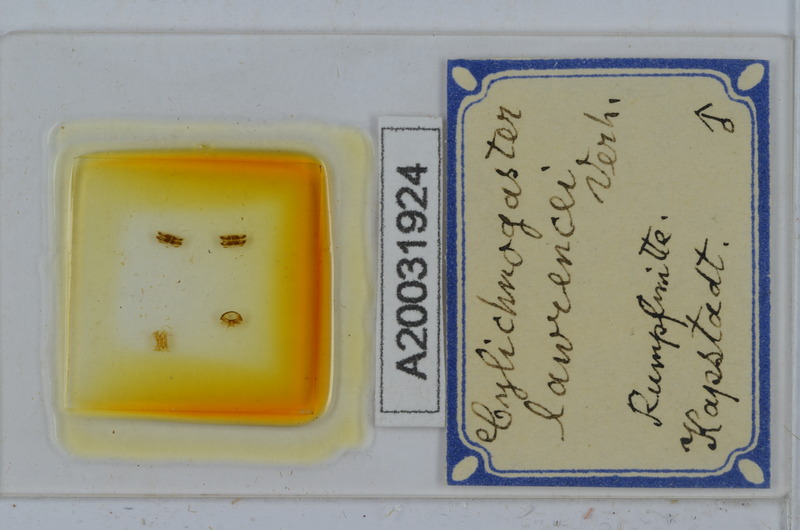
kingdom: Animalia
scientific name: Animalia
